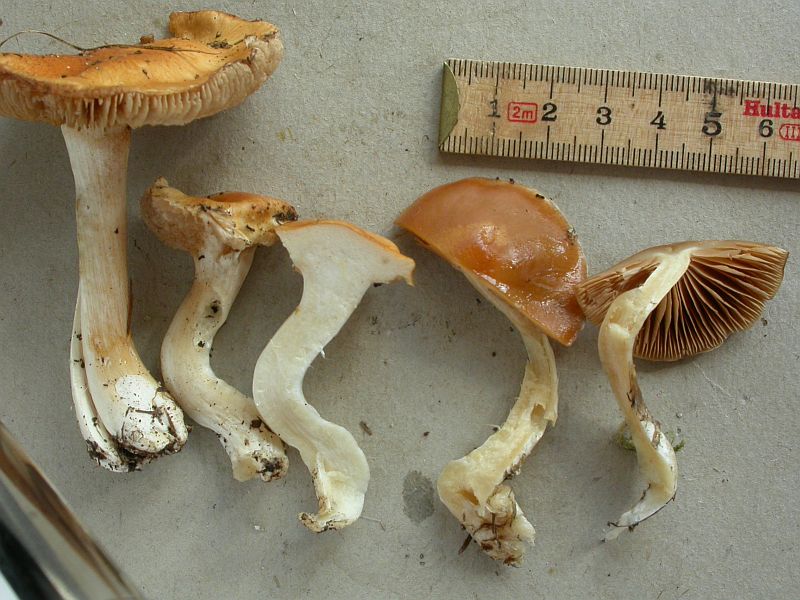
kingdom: Fungi
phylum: Basidiomycota
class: Agaricomycetes
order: Agaricales
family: Cortinariaceae
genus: Thaxterogaster
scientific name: Thaxterogaster pluvius
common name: hvidgul slørhat
